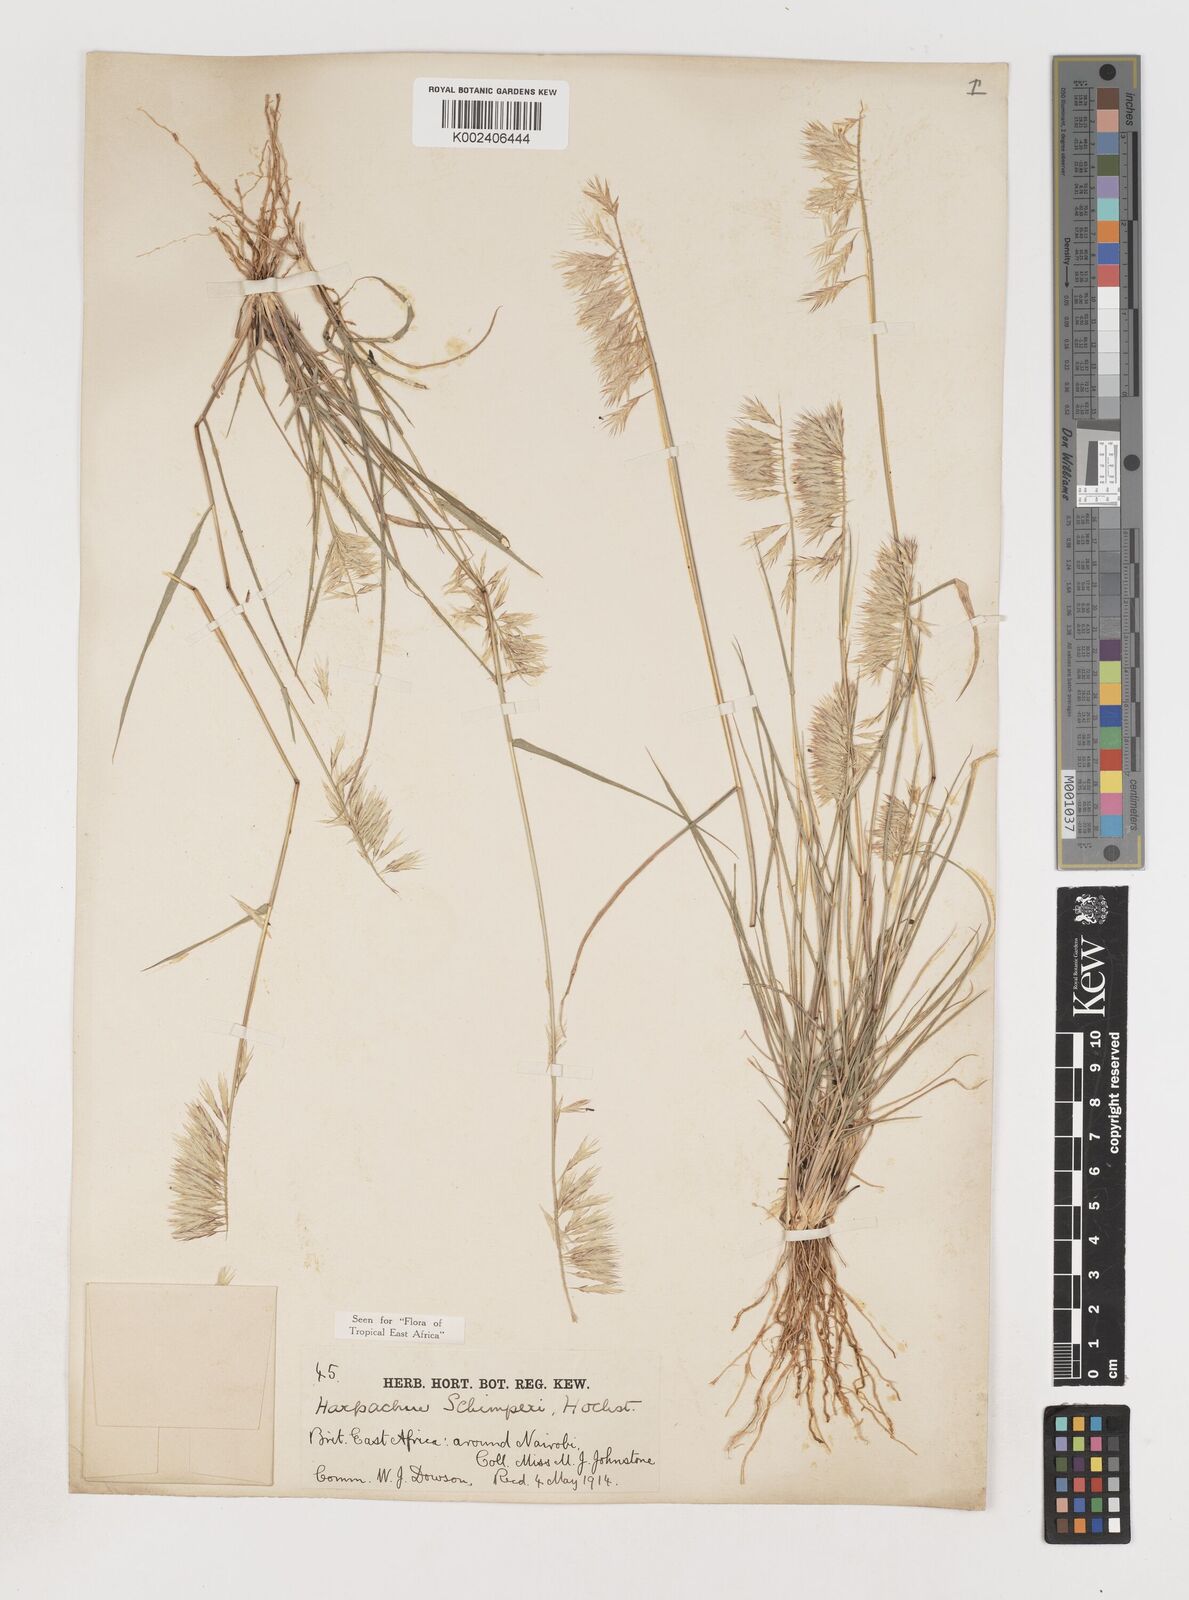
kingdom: Plantae
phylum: Tracheophyta
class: Liliopsida
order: Poales
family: Poaceae
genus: Harpachne
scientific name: Harpachne schimperi
